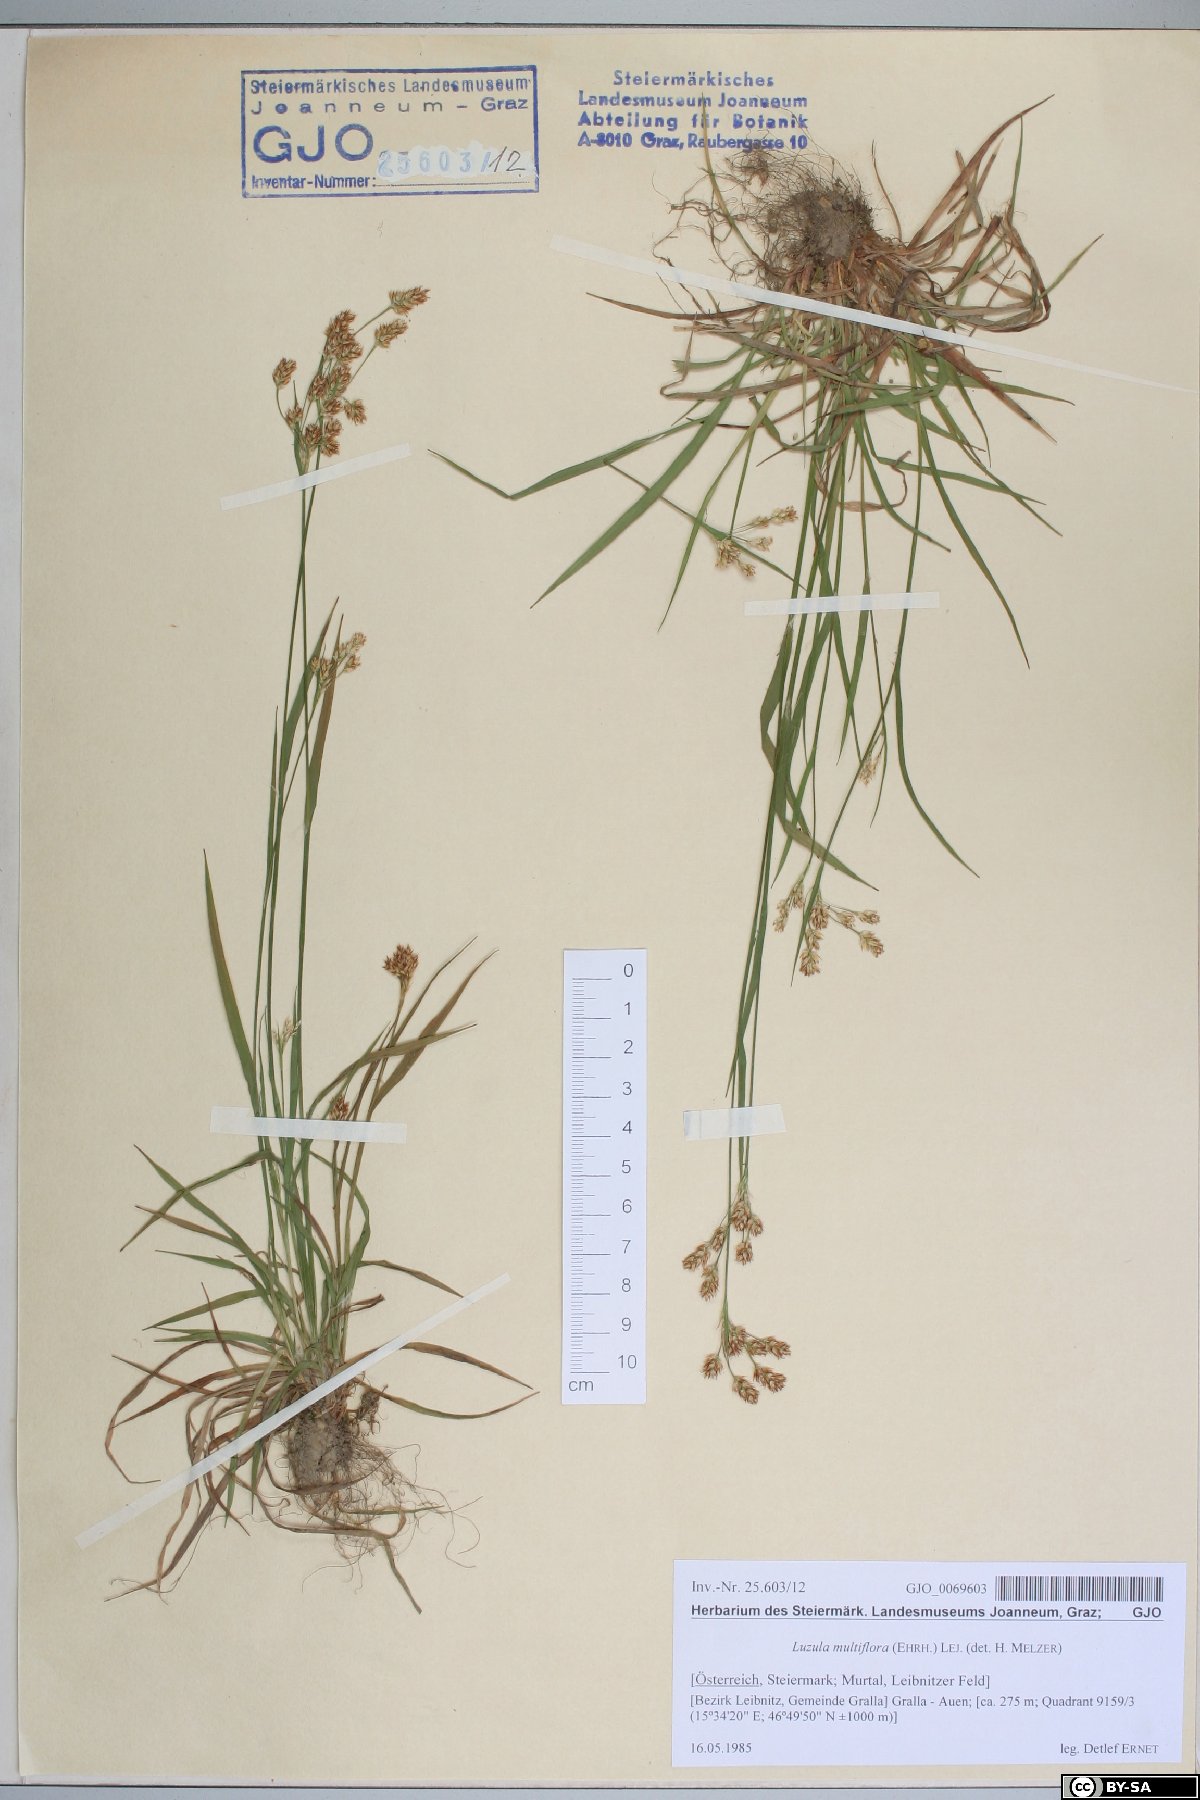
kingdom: Plantae
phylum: Tracheophyta
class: Liliopsida
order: Poales
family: Juncaceae
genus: Luzula
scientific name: Luzula multiflora
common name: Heath wood-rush
